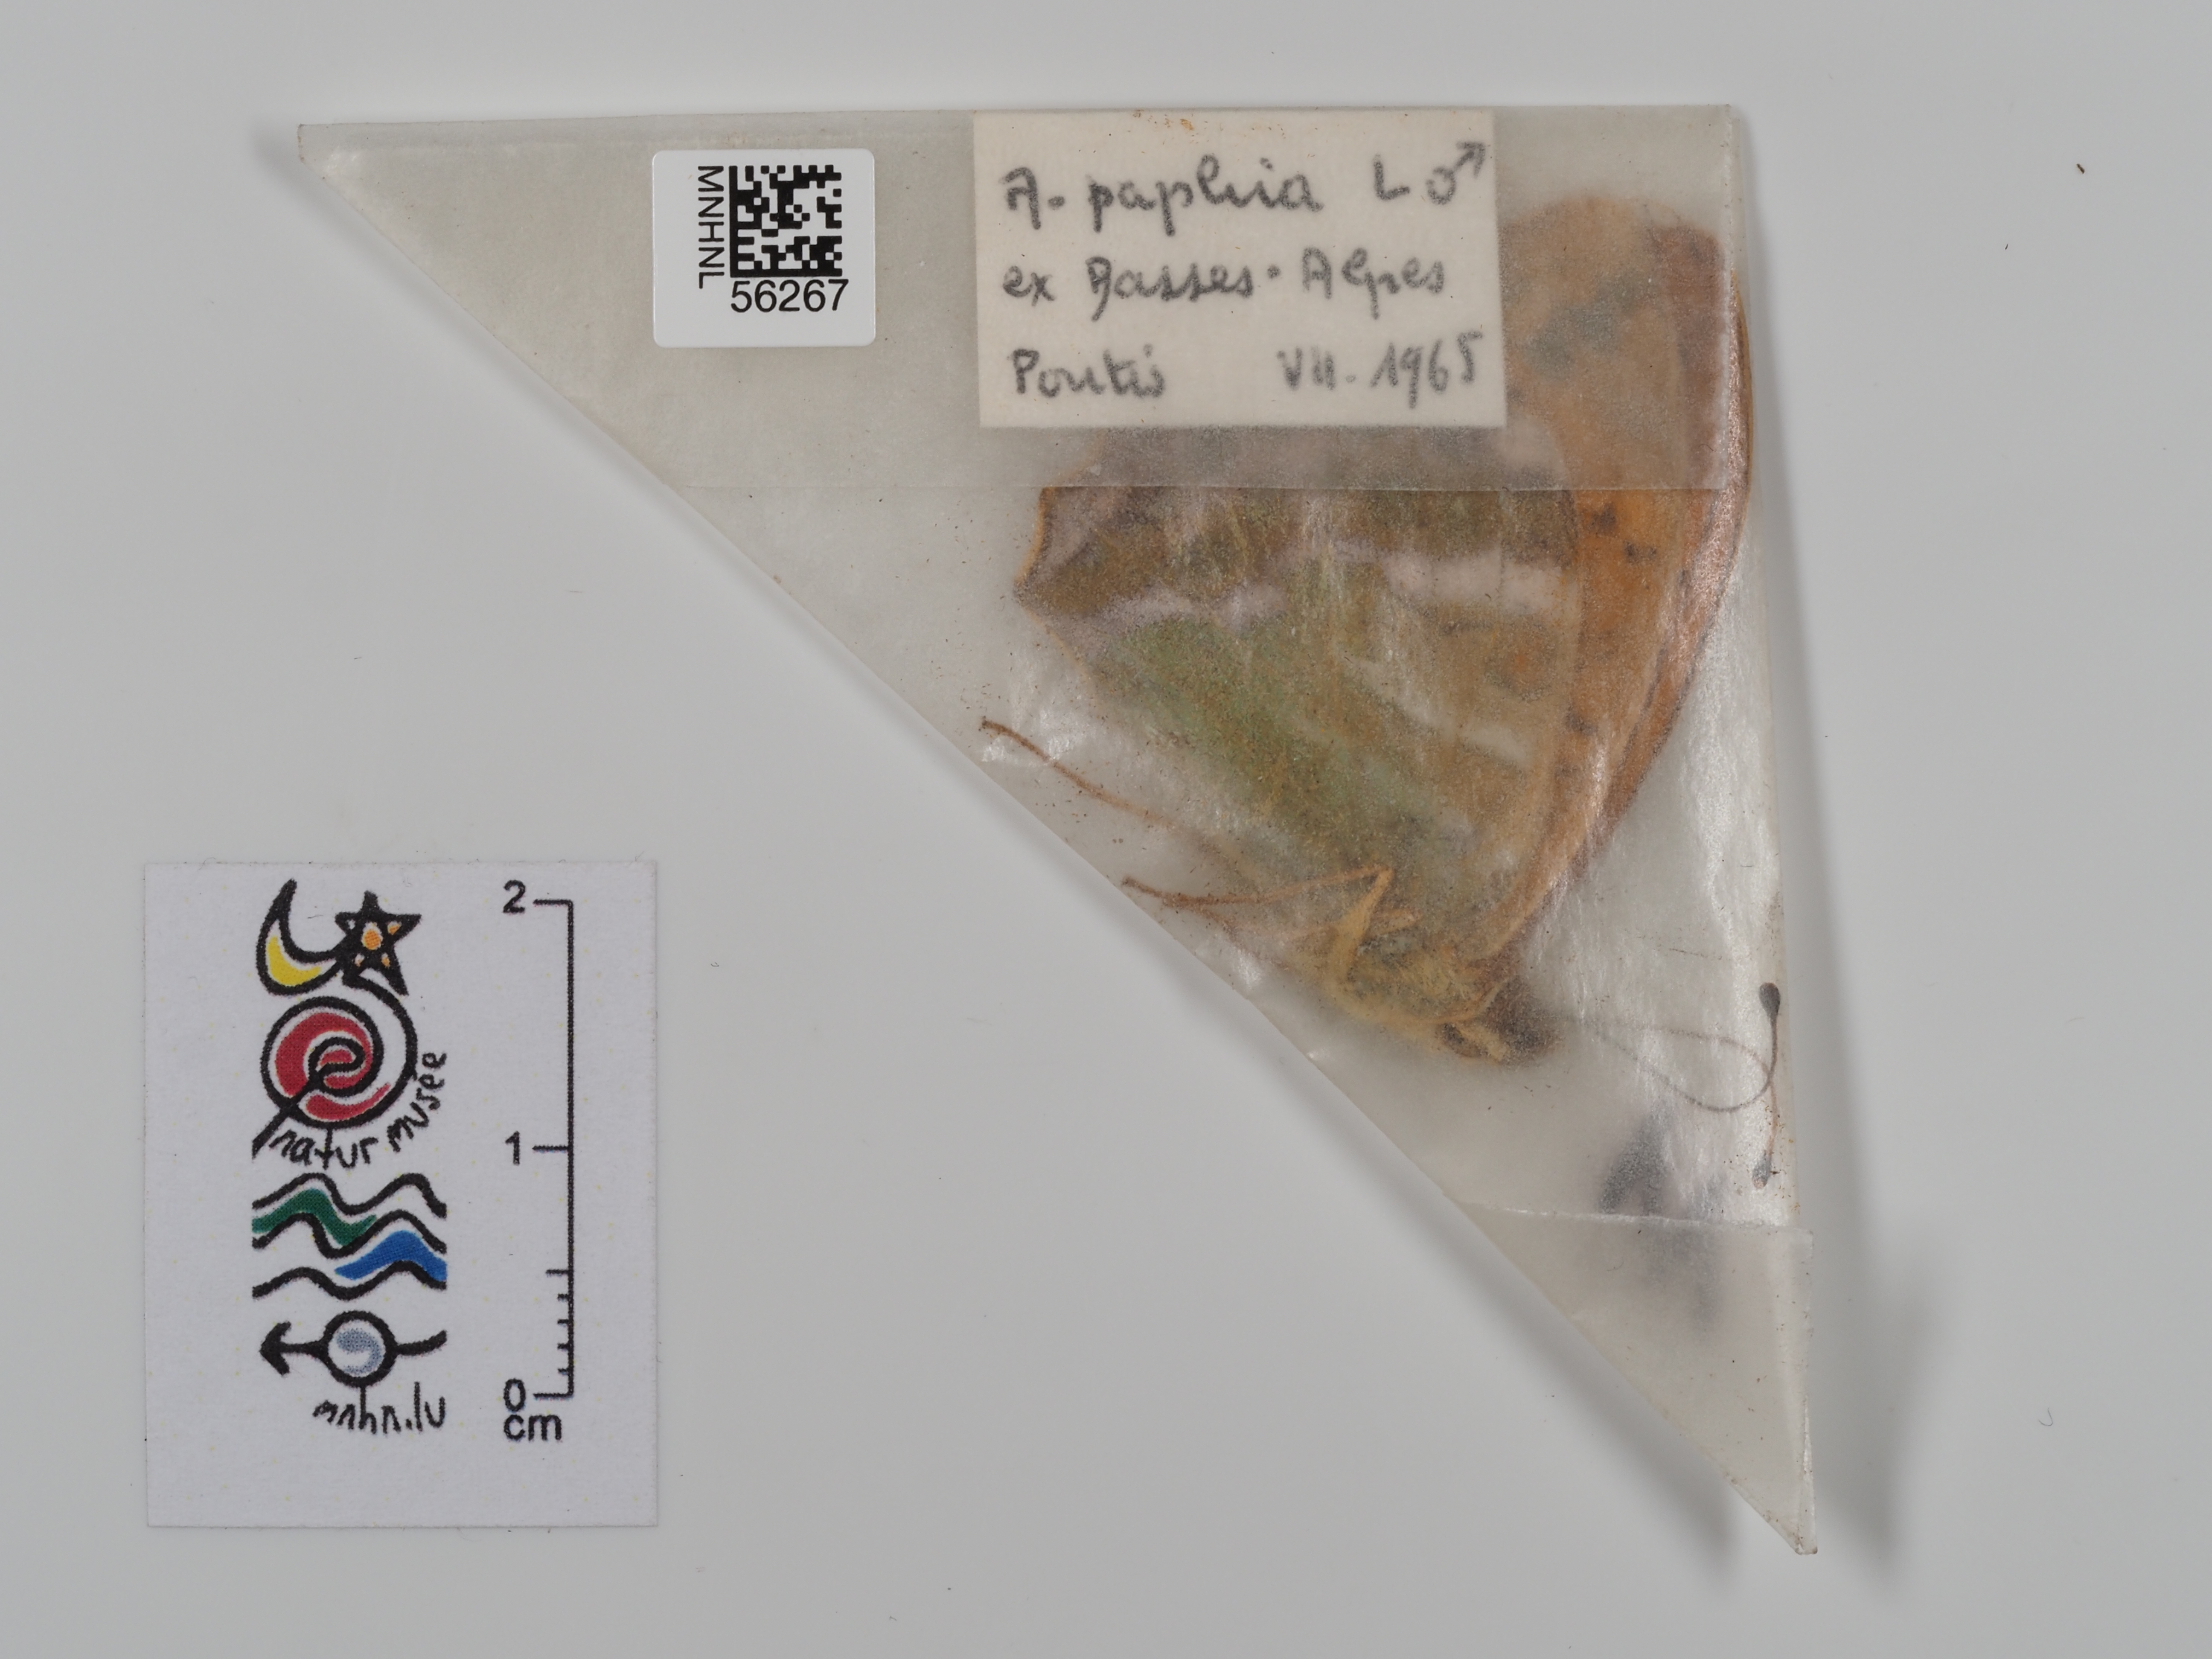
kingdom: Animalia
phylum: Arthropoda
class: Insecta
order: Lepidoptera
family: Nymphalidae
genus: Argynnis
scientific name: Argynnis paphia
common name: Silver-washed fritillary
